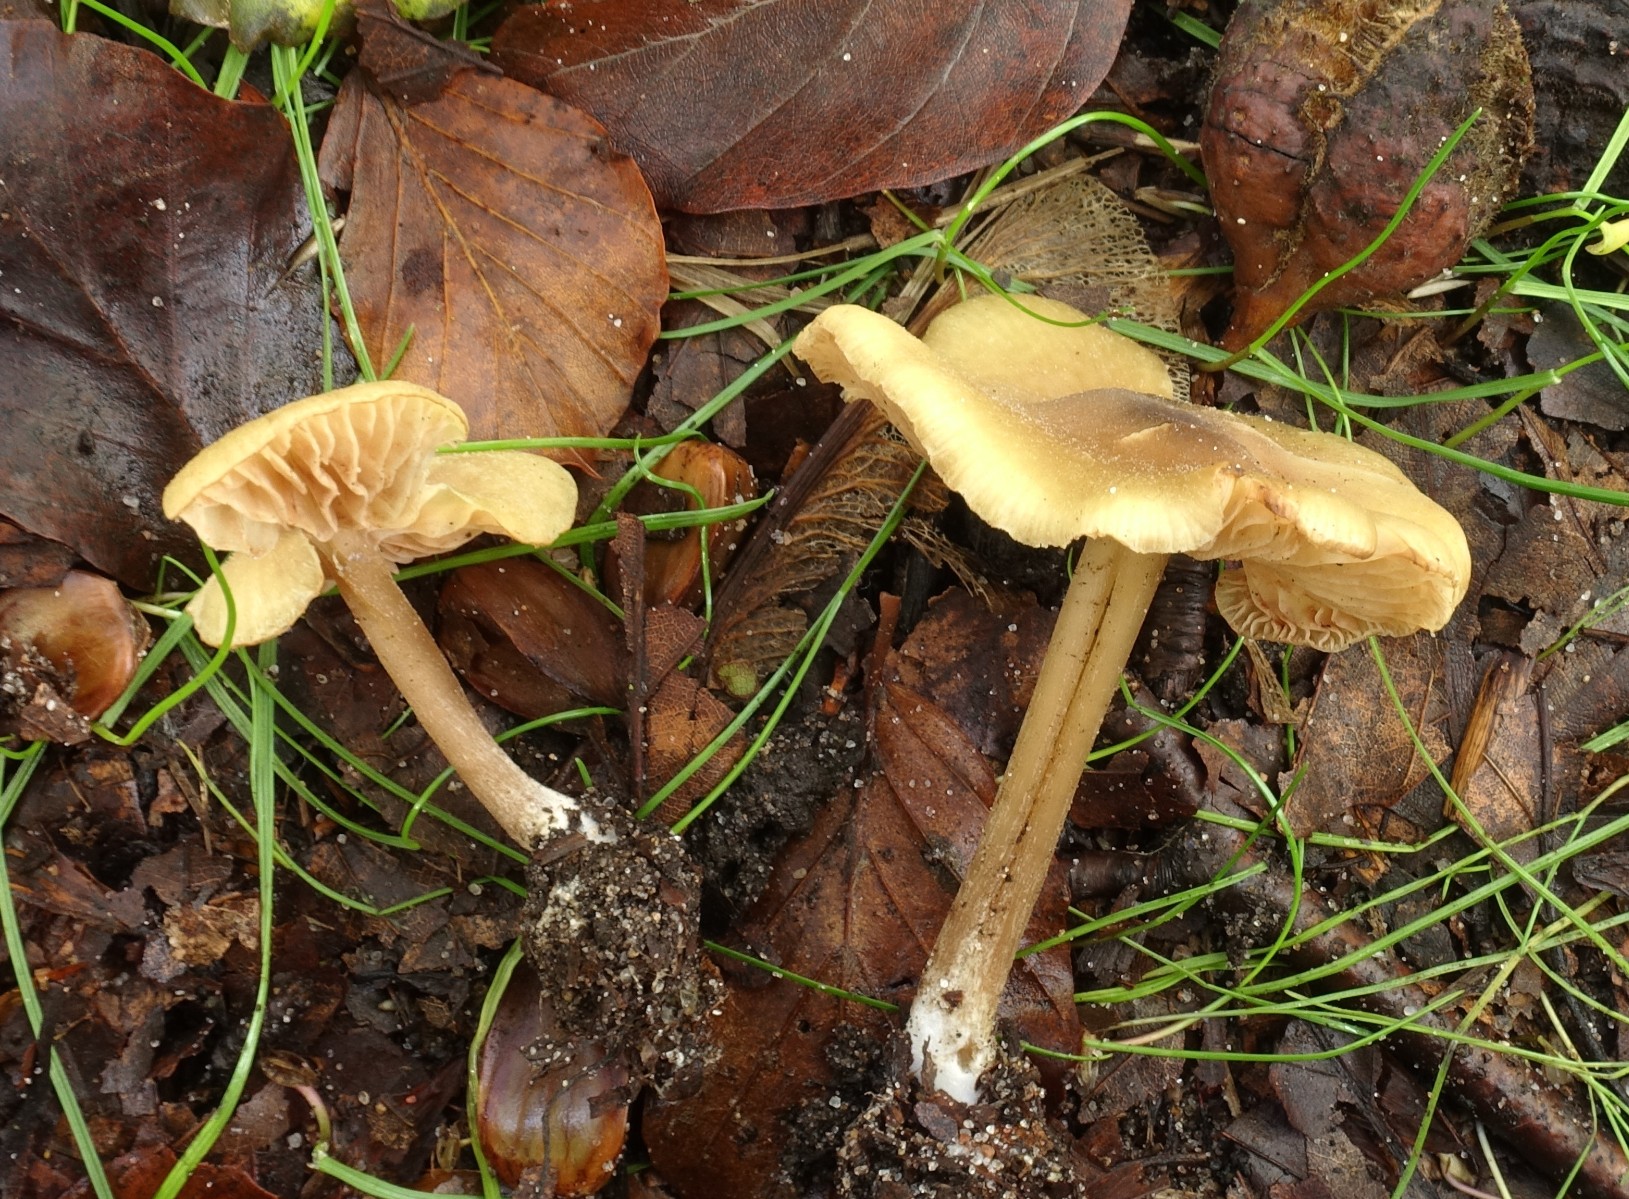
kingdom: Fungi
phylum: Basidiomycota
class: Agaricomycetes
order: Agaricales
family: Entolomataceae
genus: Entoloma
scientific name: Entoloma pleopodium
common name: duftende rødblad
